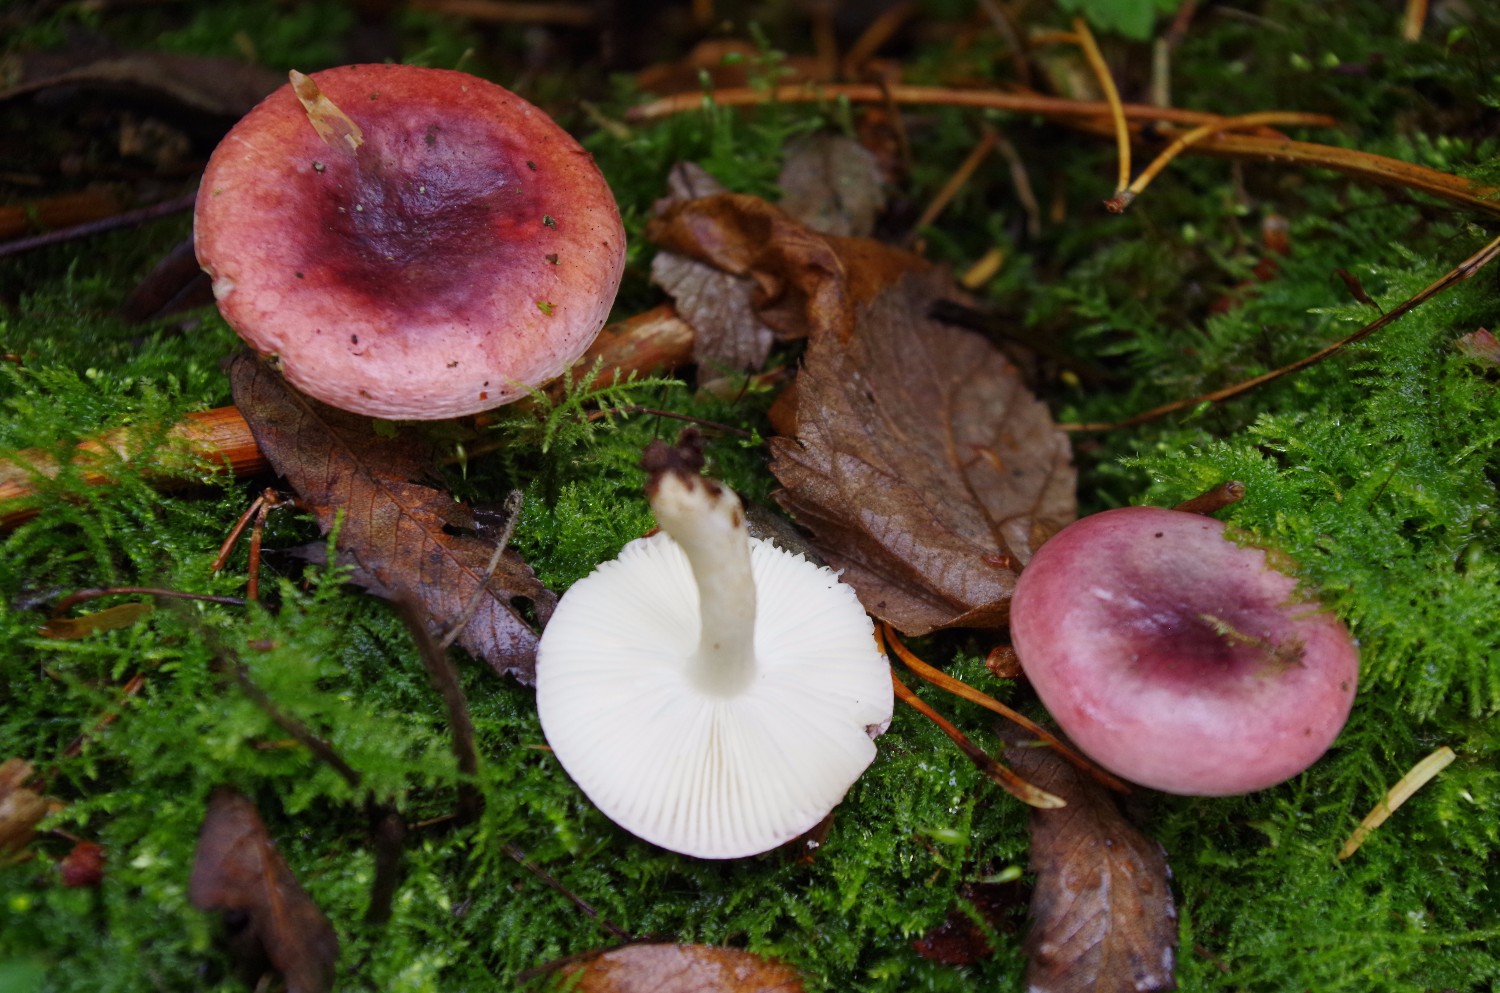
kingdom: Fungi
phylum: Basidiomycota
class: Agaricomycetes
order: Russulales
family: Russulaceae
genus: Russula
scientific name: Russula atrorubens
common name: sortrød skørhat
